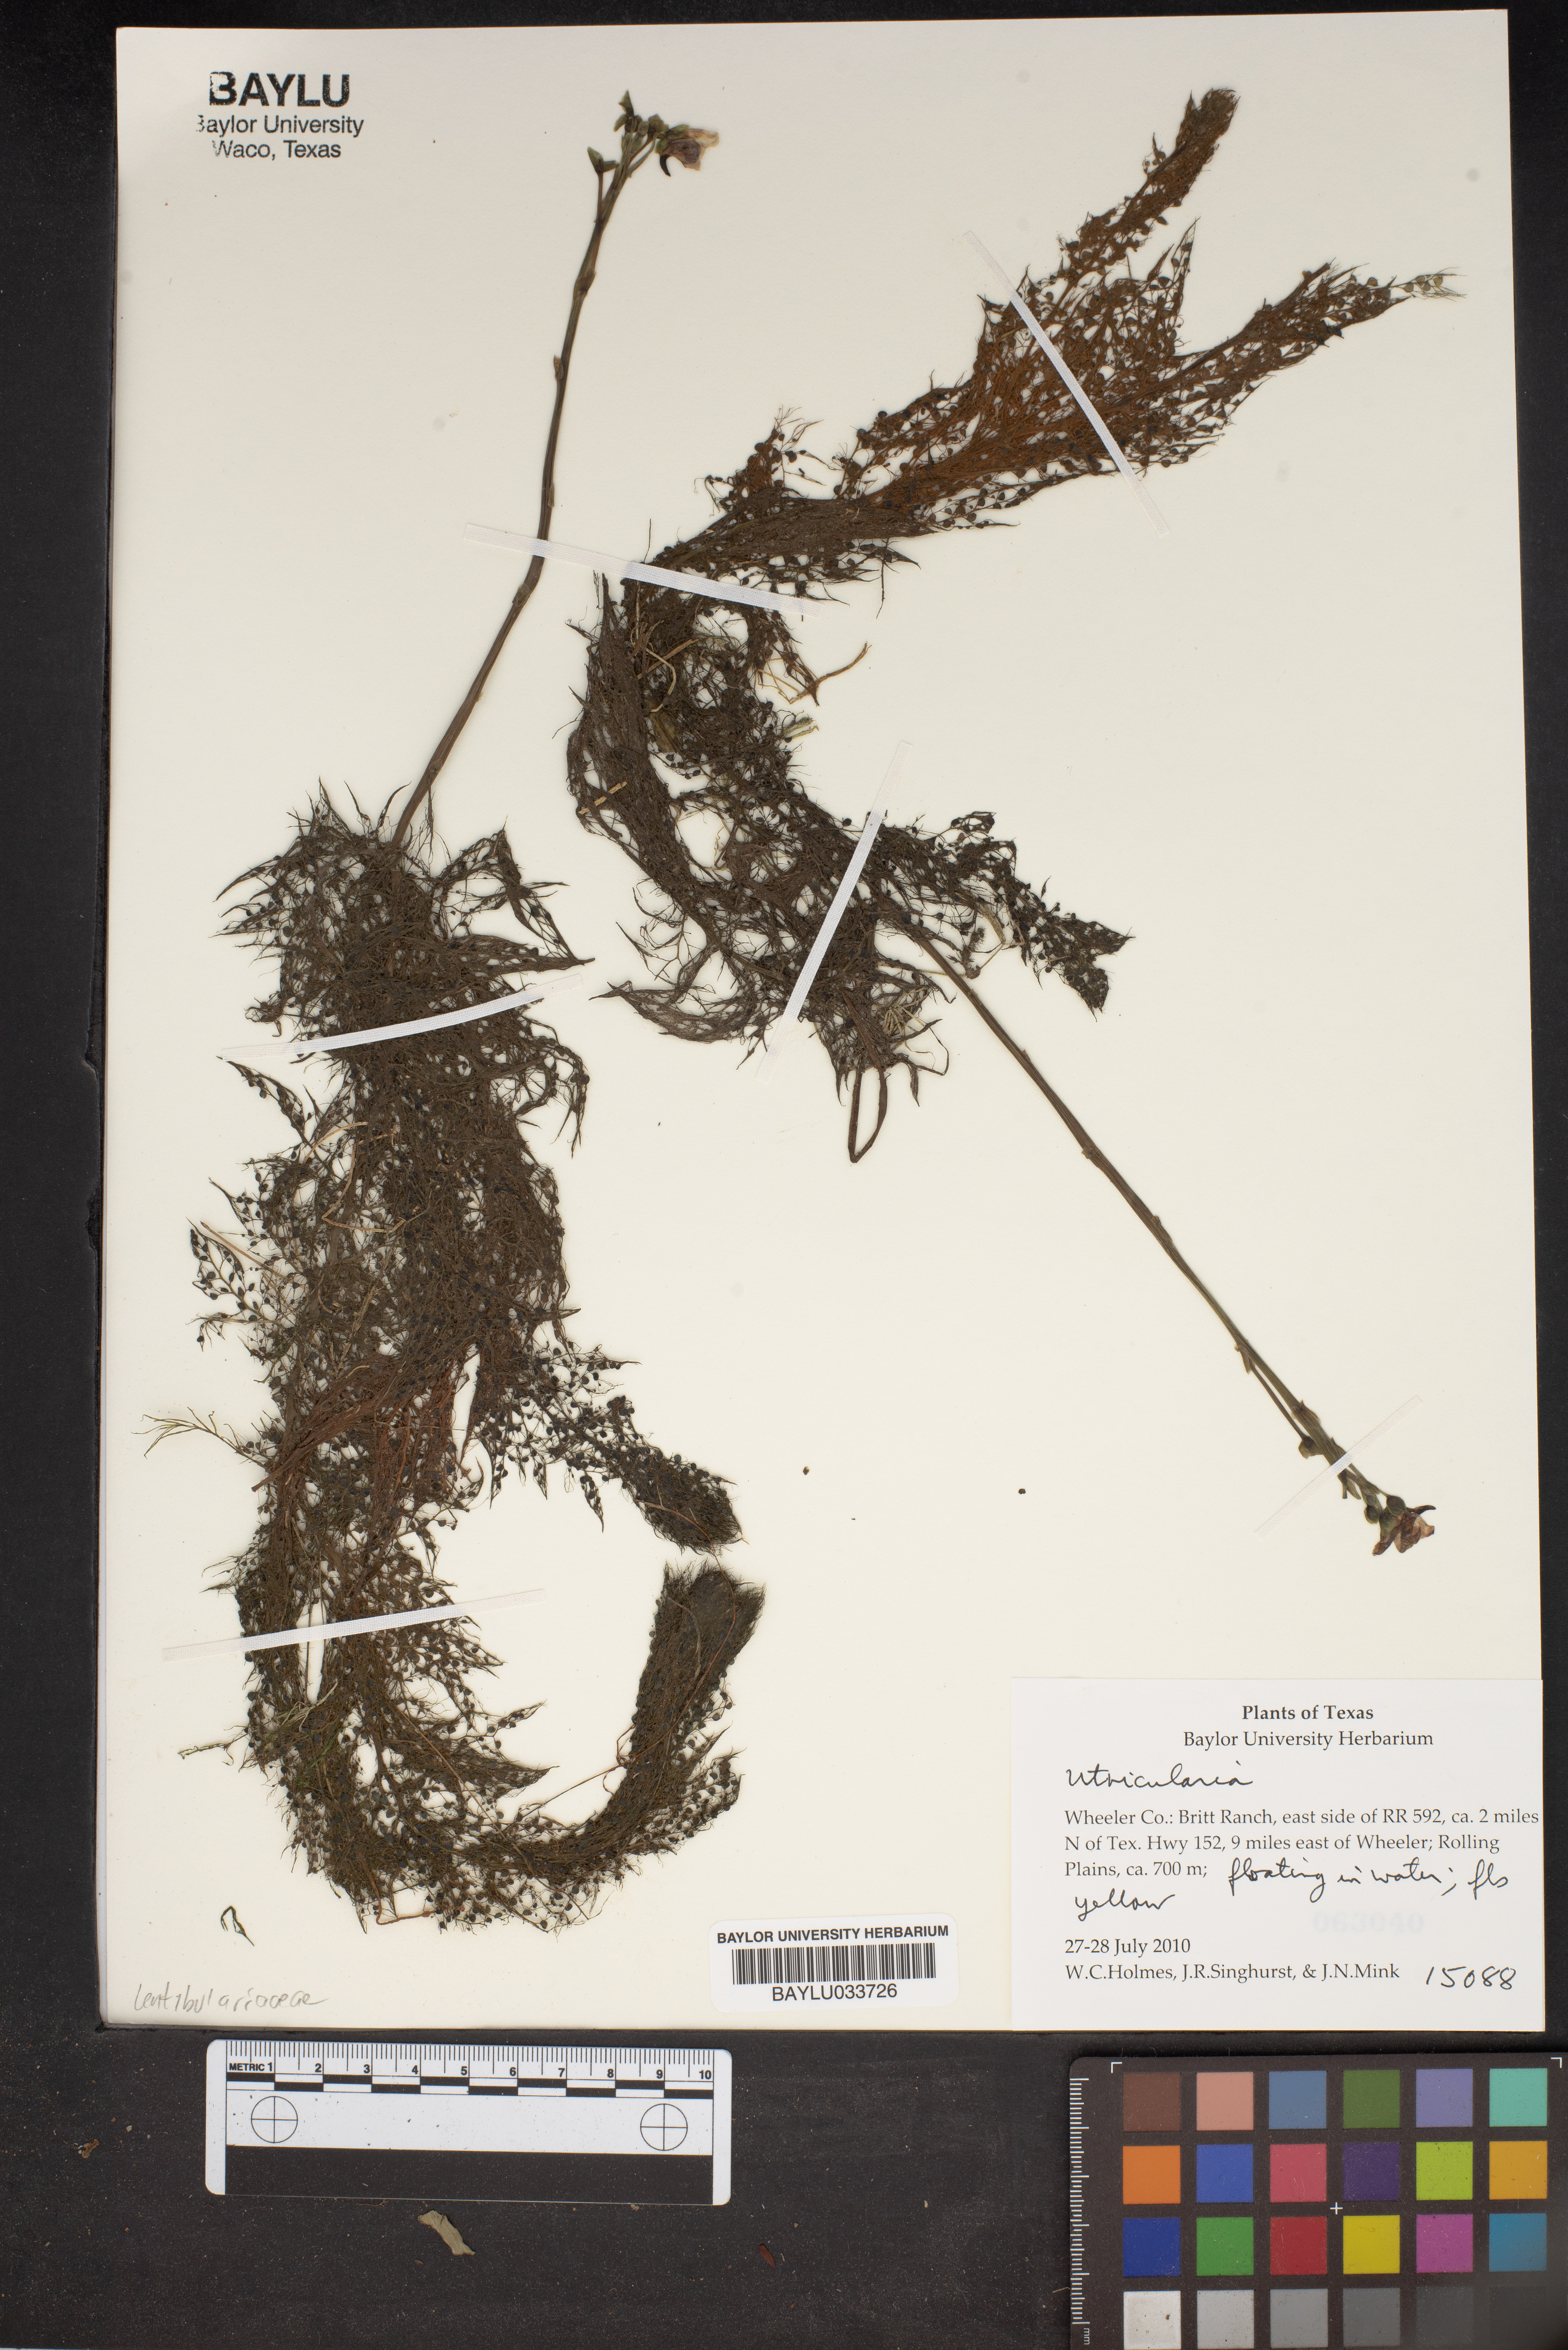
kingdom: Plantae
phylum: Tracheophyta
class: Magnoliopsida
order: Lamiales
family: Lentibulariaceae
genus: Utricularia
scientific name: Utricularia
